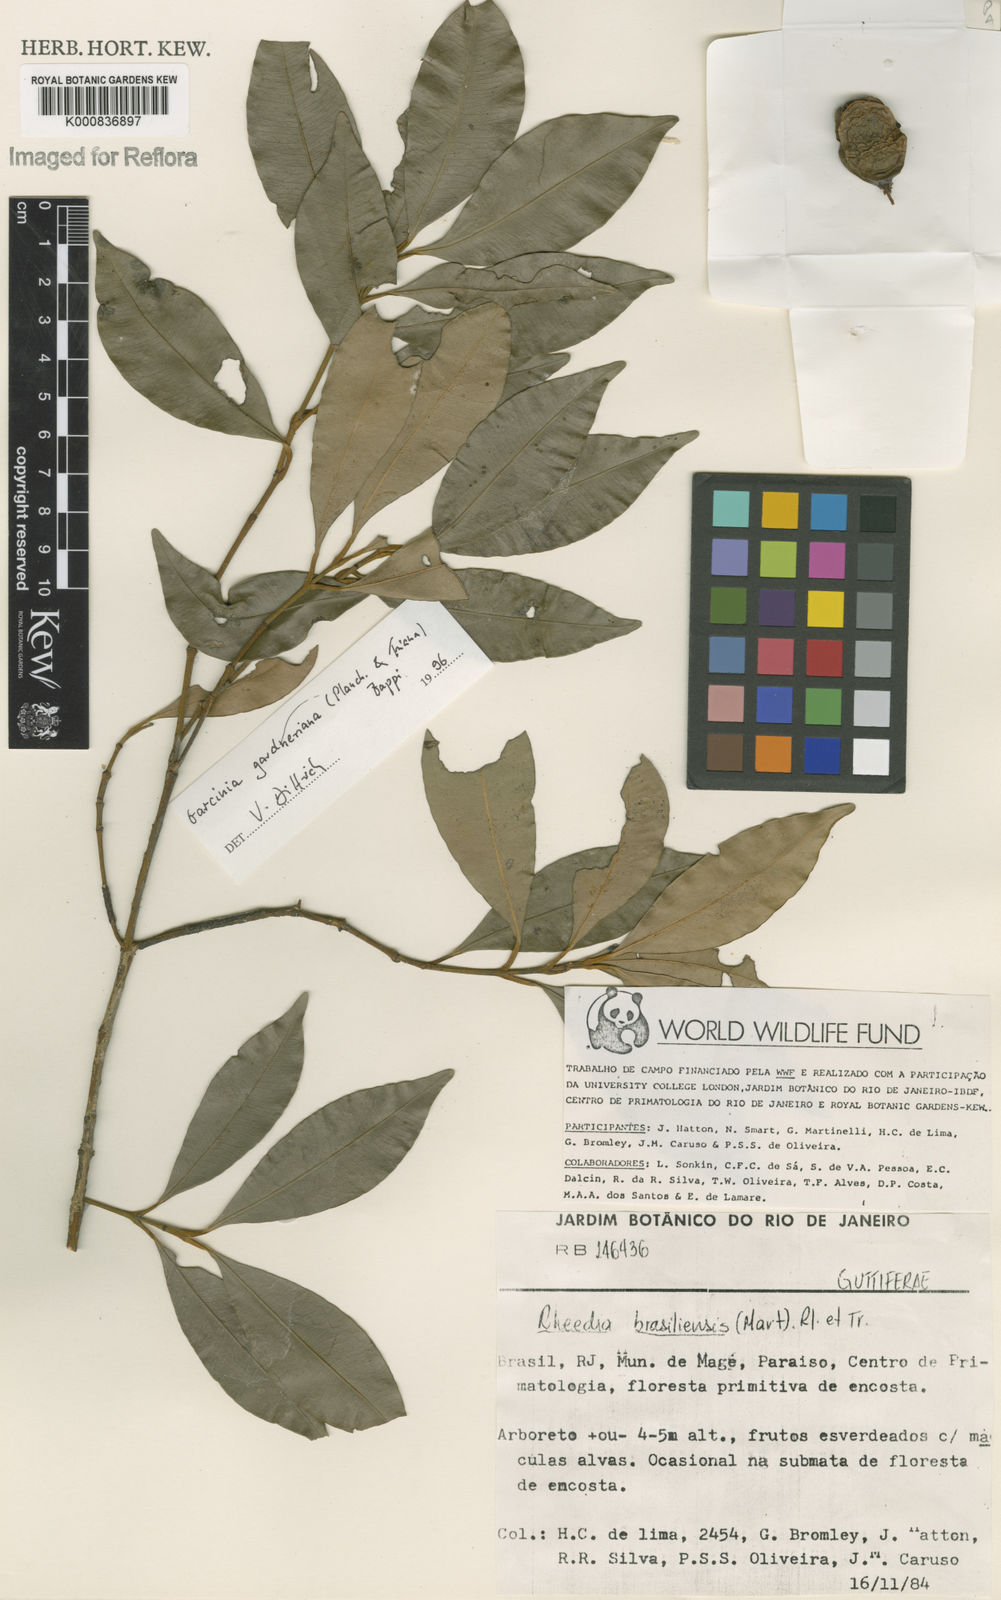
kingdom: Plantae
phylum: Tracheophyta
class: Magnoliopsida
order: Malpighiales
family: Clusiaceae
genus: Garcinia
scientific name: Garcinia gardneriana
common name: Achacha
